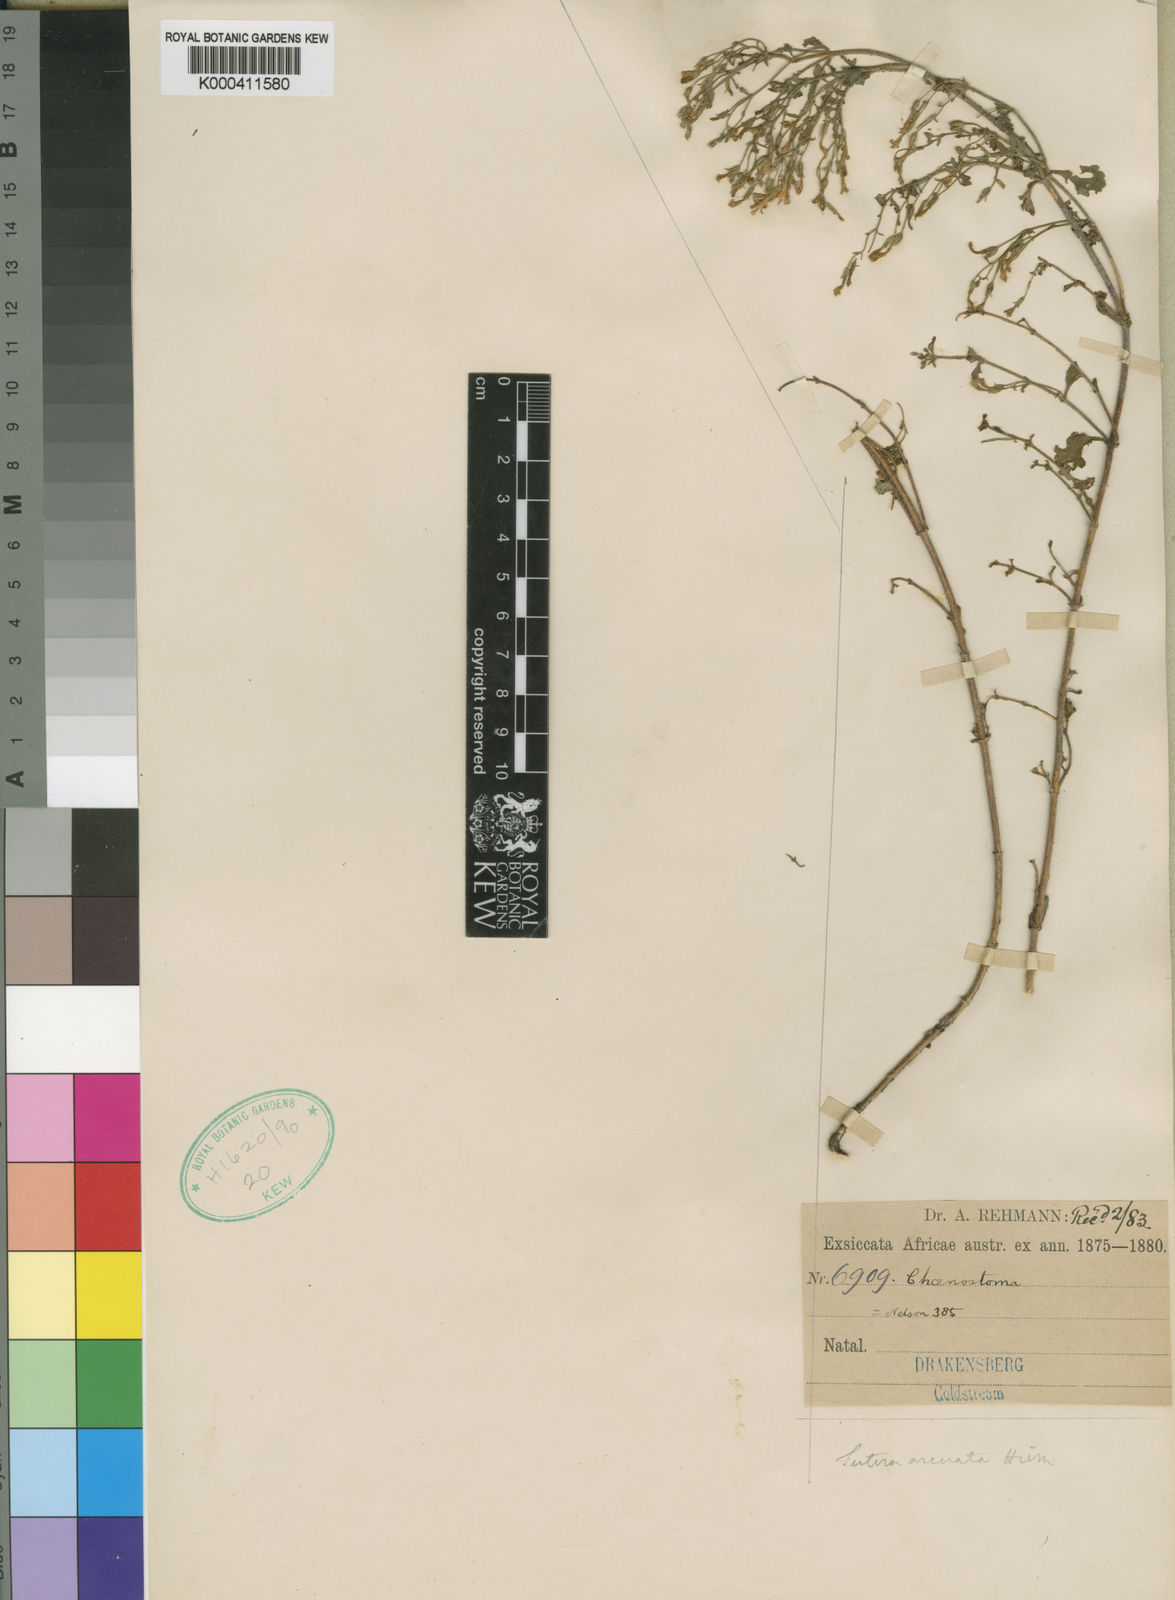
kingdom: Plantae
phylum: Tracheophyta
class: Magnoliopsida
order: Lamiales
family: Scrophulariaceae
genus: Chaenostoma
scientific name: Chaenostoma floribundum
